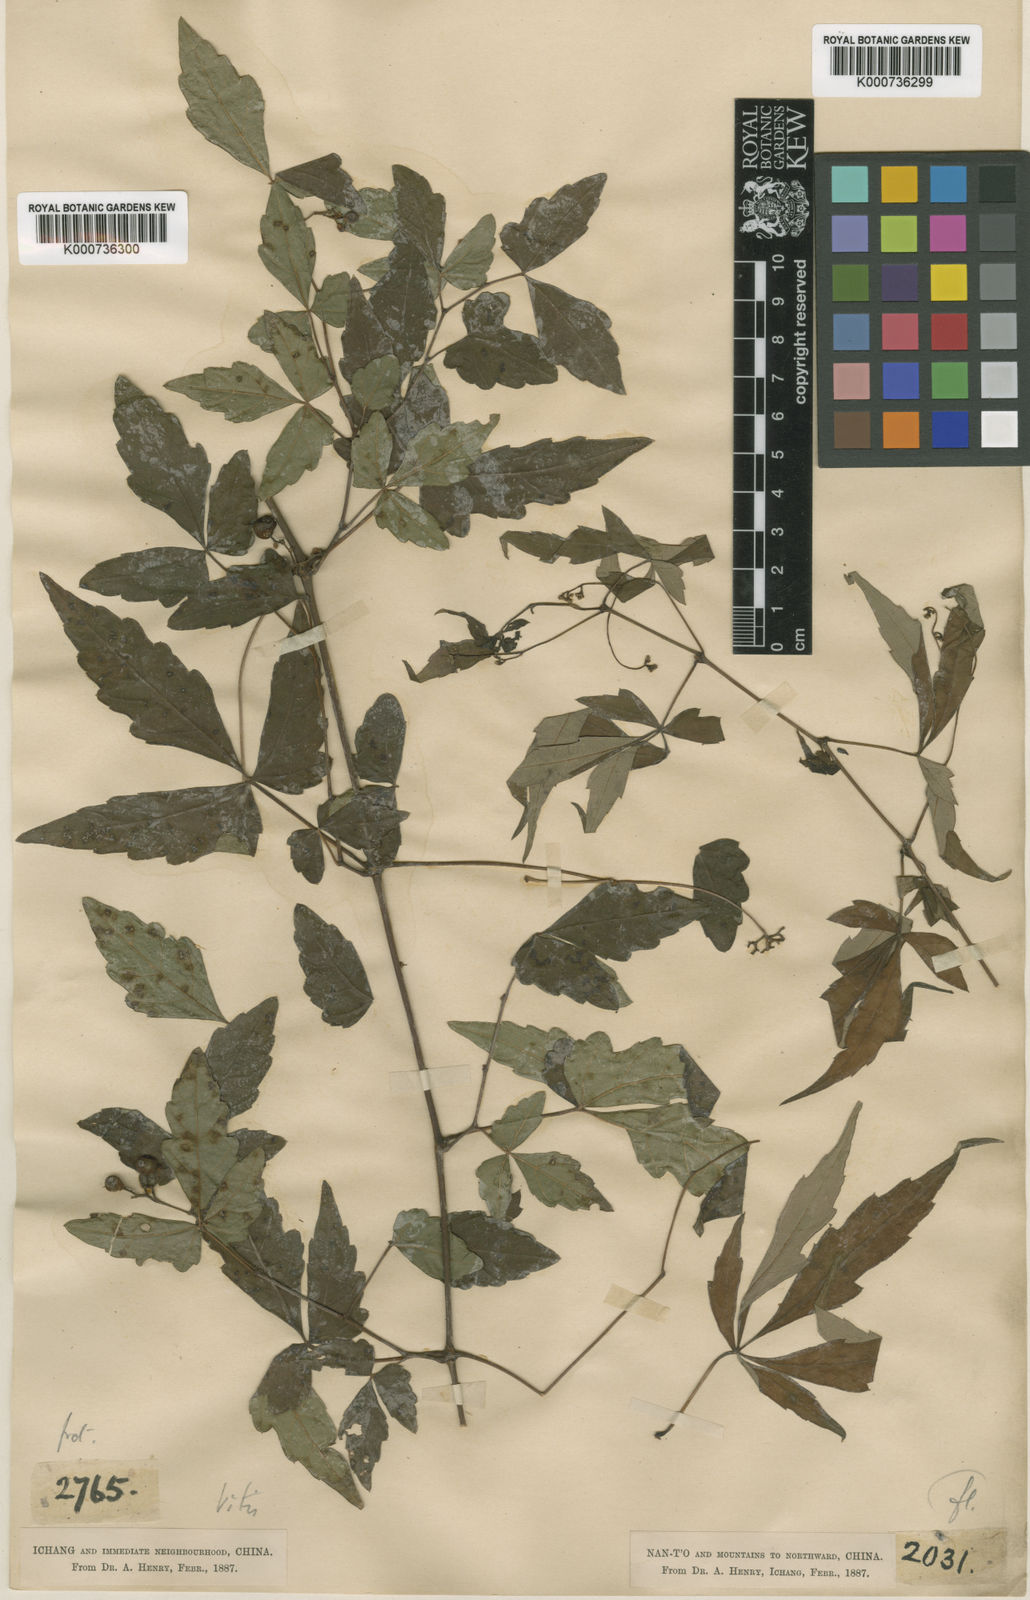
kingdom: Plantae
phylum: Tracheophyta
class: Magnoliopsida
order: Vitales
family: Vitaceae
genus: Ampelopsis
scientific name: Ampelopsis delavayana
